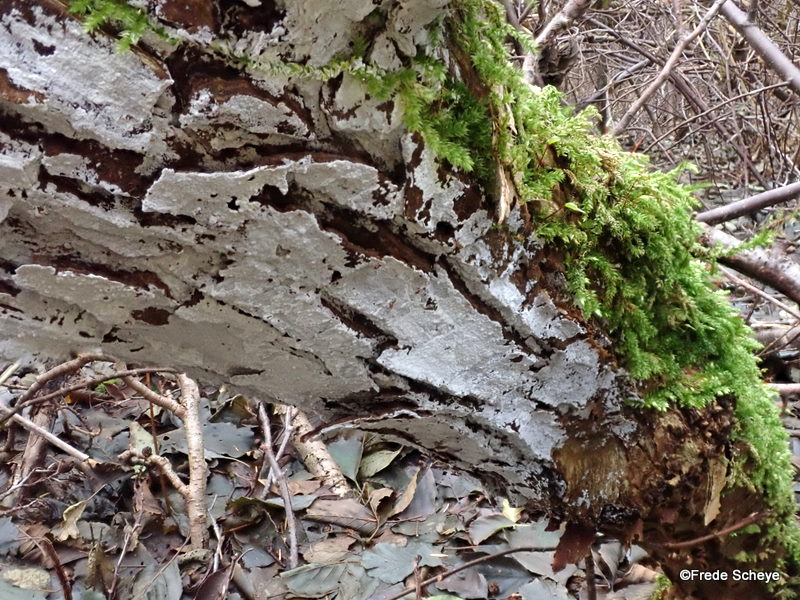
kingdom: Fungi
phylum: Basidiomycota
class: Agaricomycetes
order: Corticiales
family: Corticiaceae
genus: Lyomyces
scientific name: Lyomyces sambuci
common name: almindelig hyldehinde
